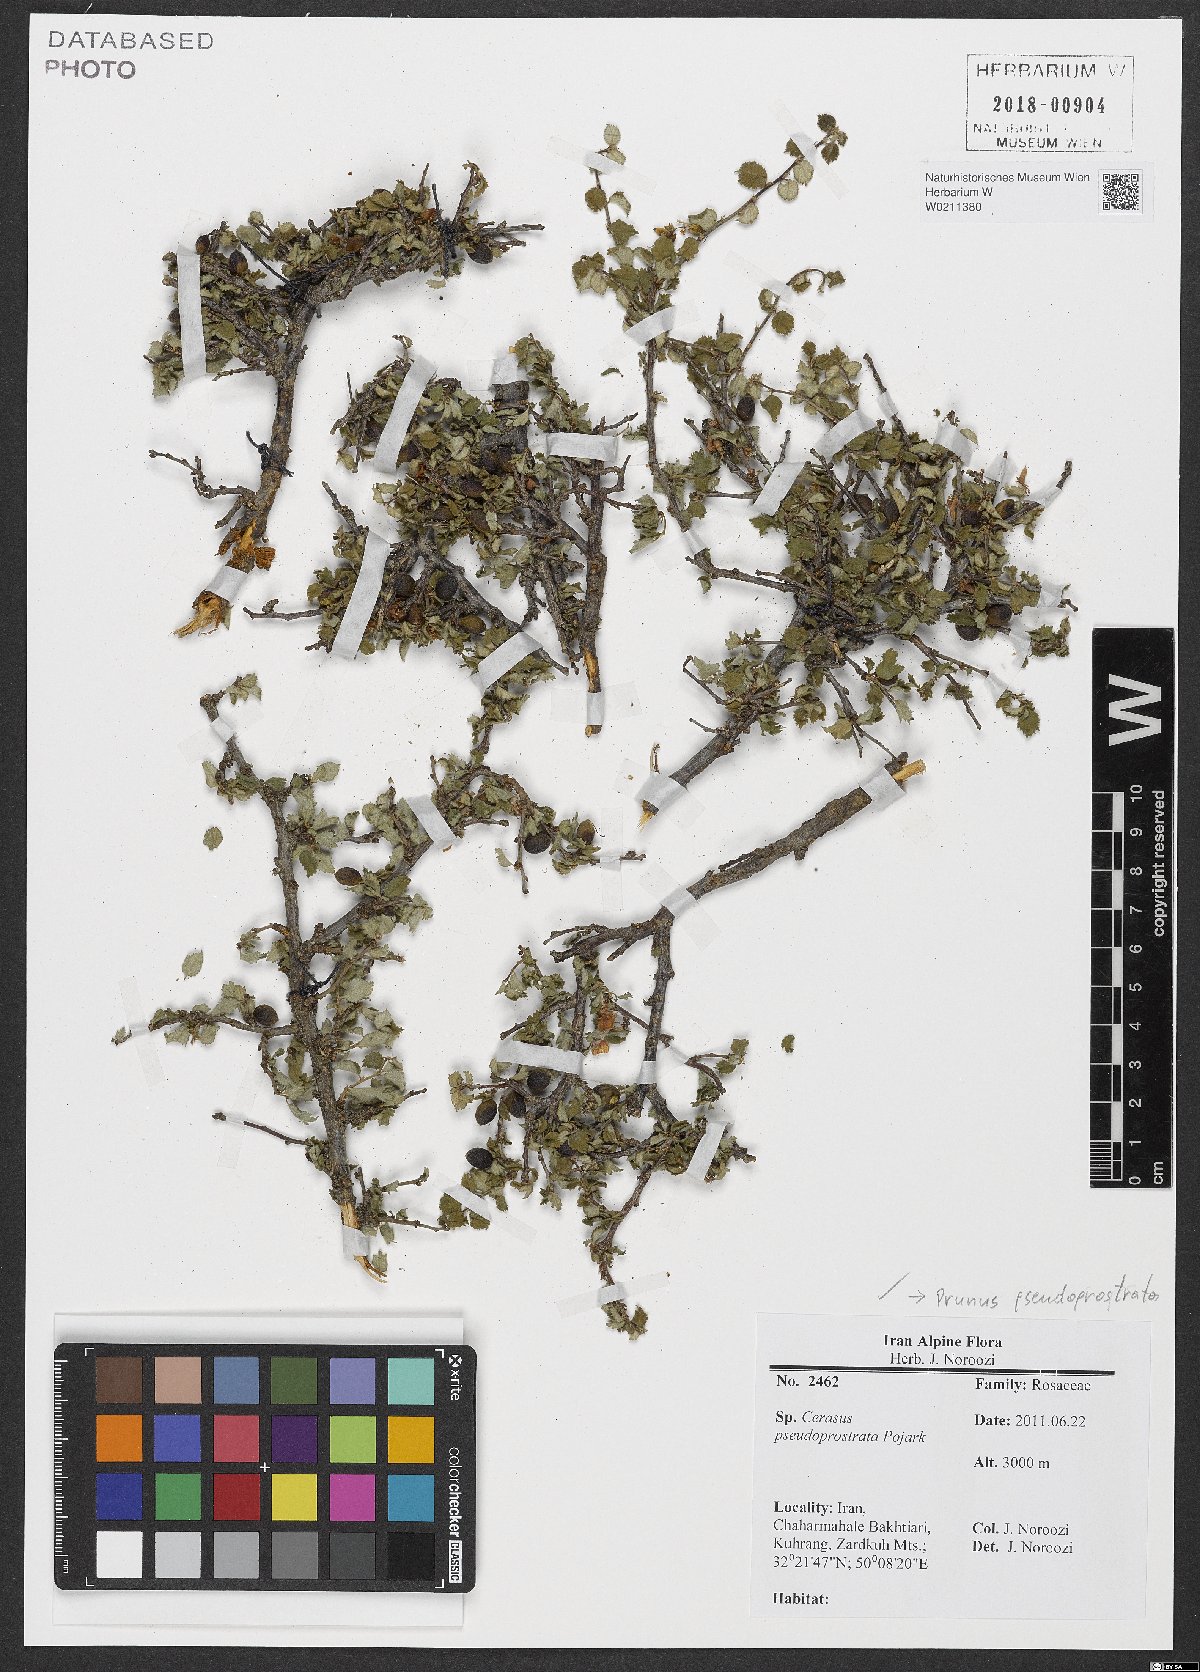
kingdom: Plantae
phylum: Tracheophyta
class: Magnoliopsida
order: Rosales
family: Rosaceae
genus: Prunus
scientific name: Prunus pseudoprostrata
